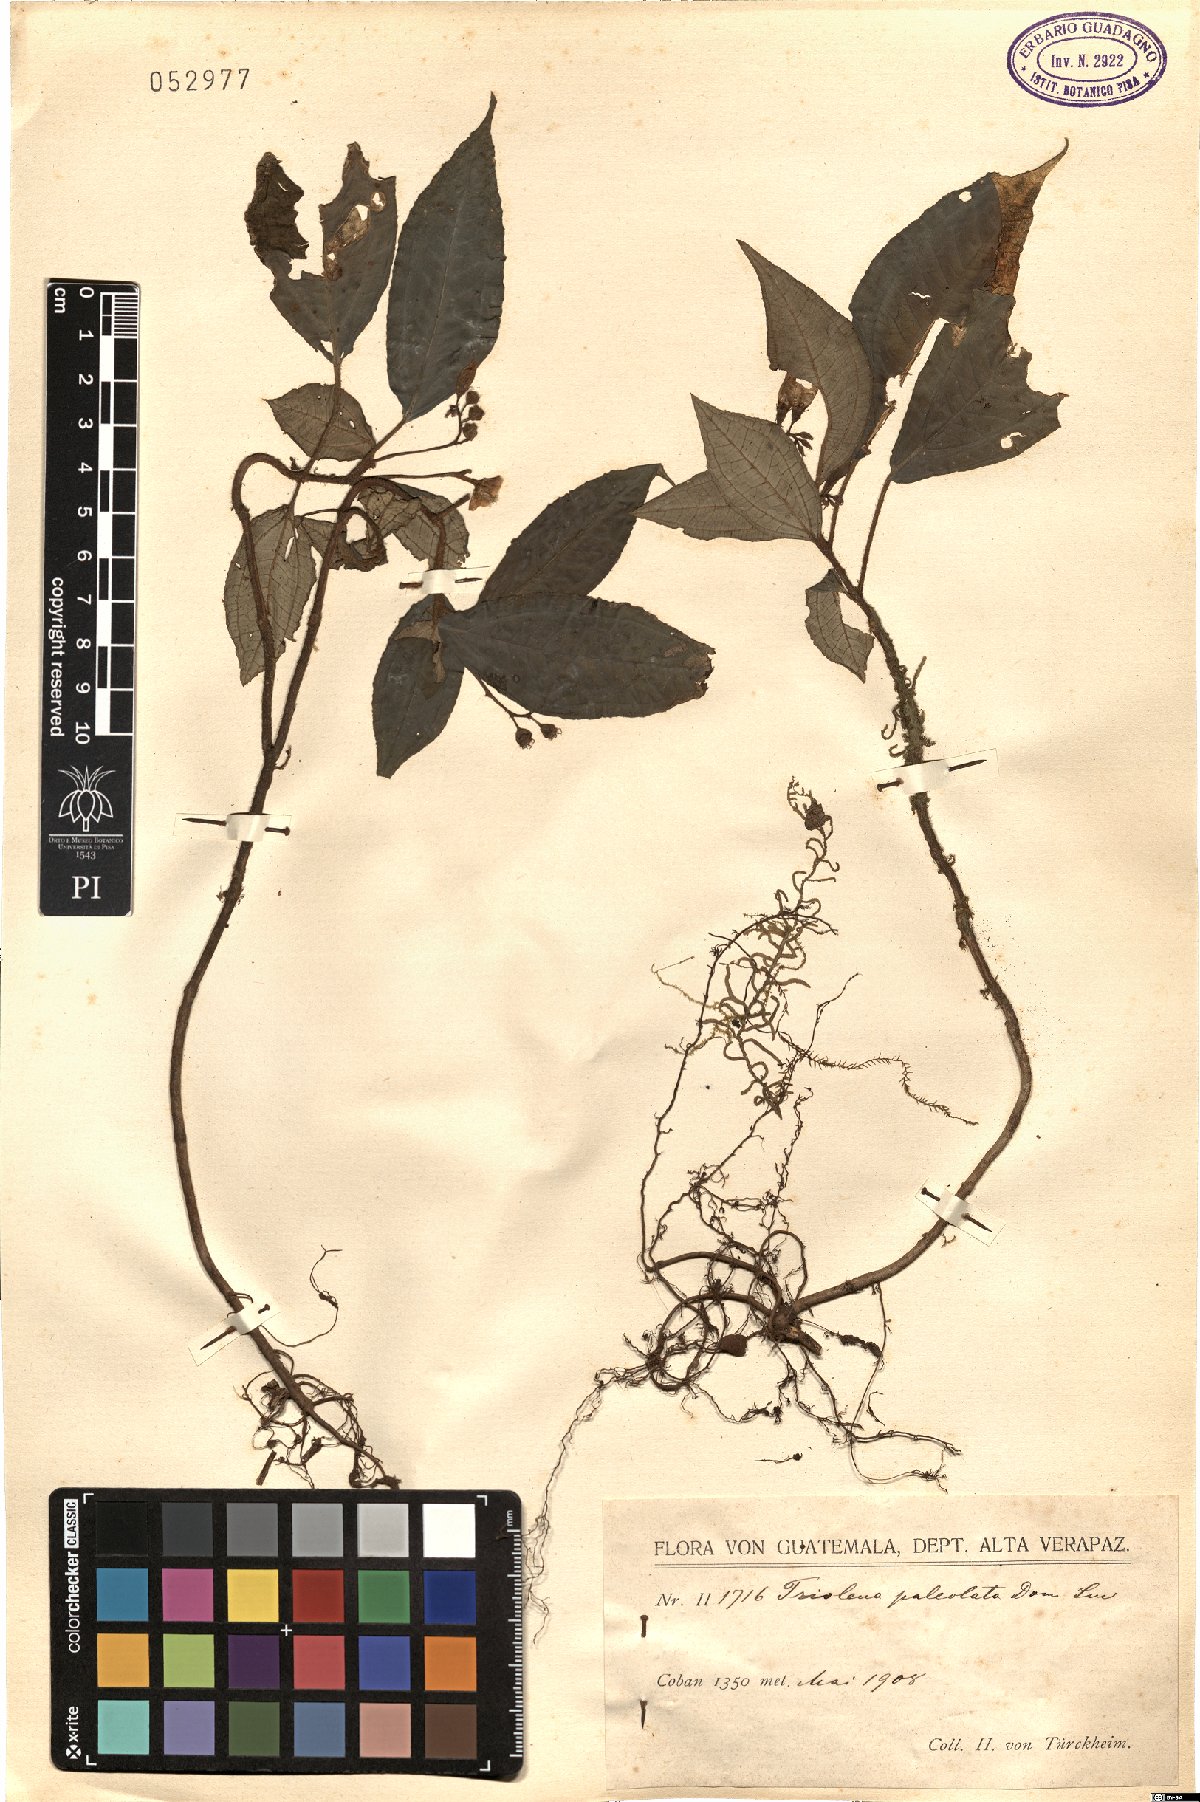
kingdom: Plantae
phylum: Tracheophyta
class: Magnoliopsida
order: Myrtales
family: Melastomataceae
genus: Triolena
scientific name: Triolena paleolata
